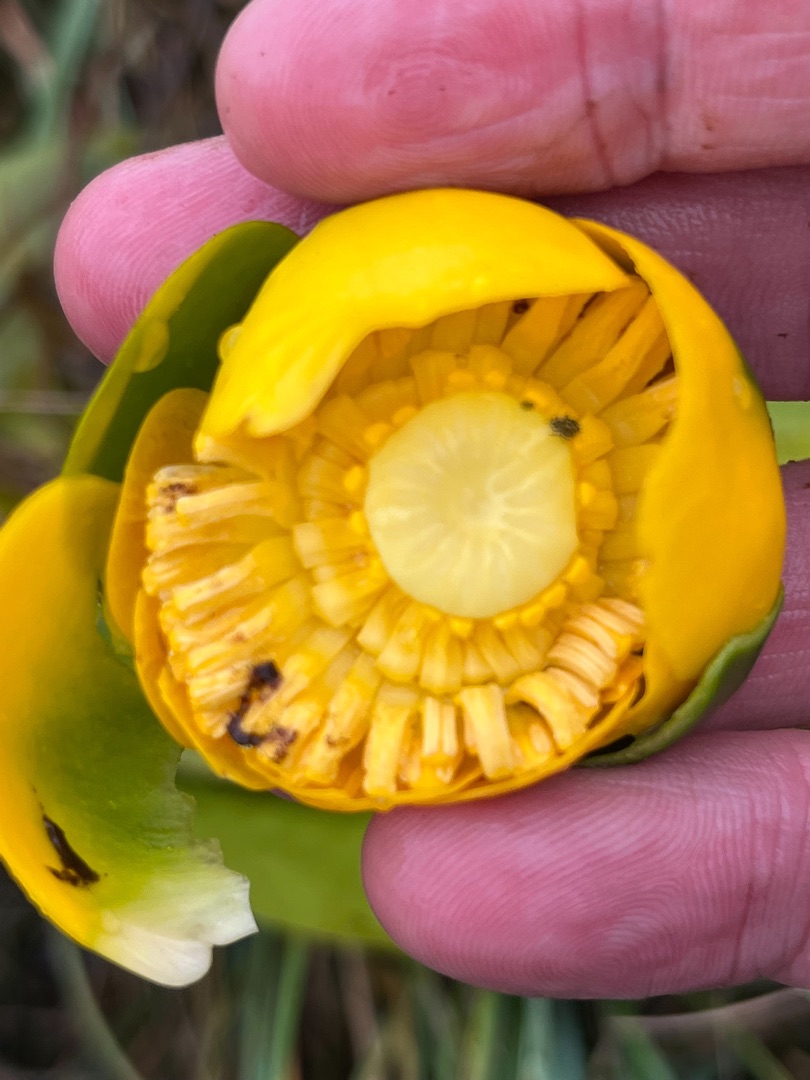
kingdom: Plantae
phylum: Tracheophyta
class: Magnoliopsida
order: Nymphaeales
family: Nymphaeaceae
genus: Nuphar
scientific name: Nuphar lutea
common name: Gul åkande
